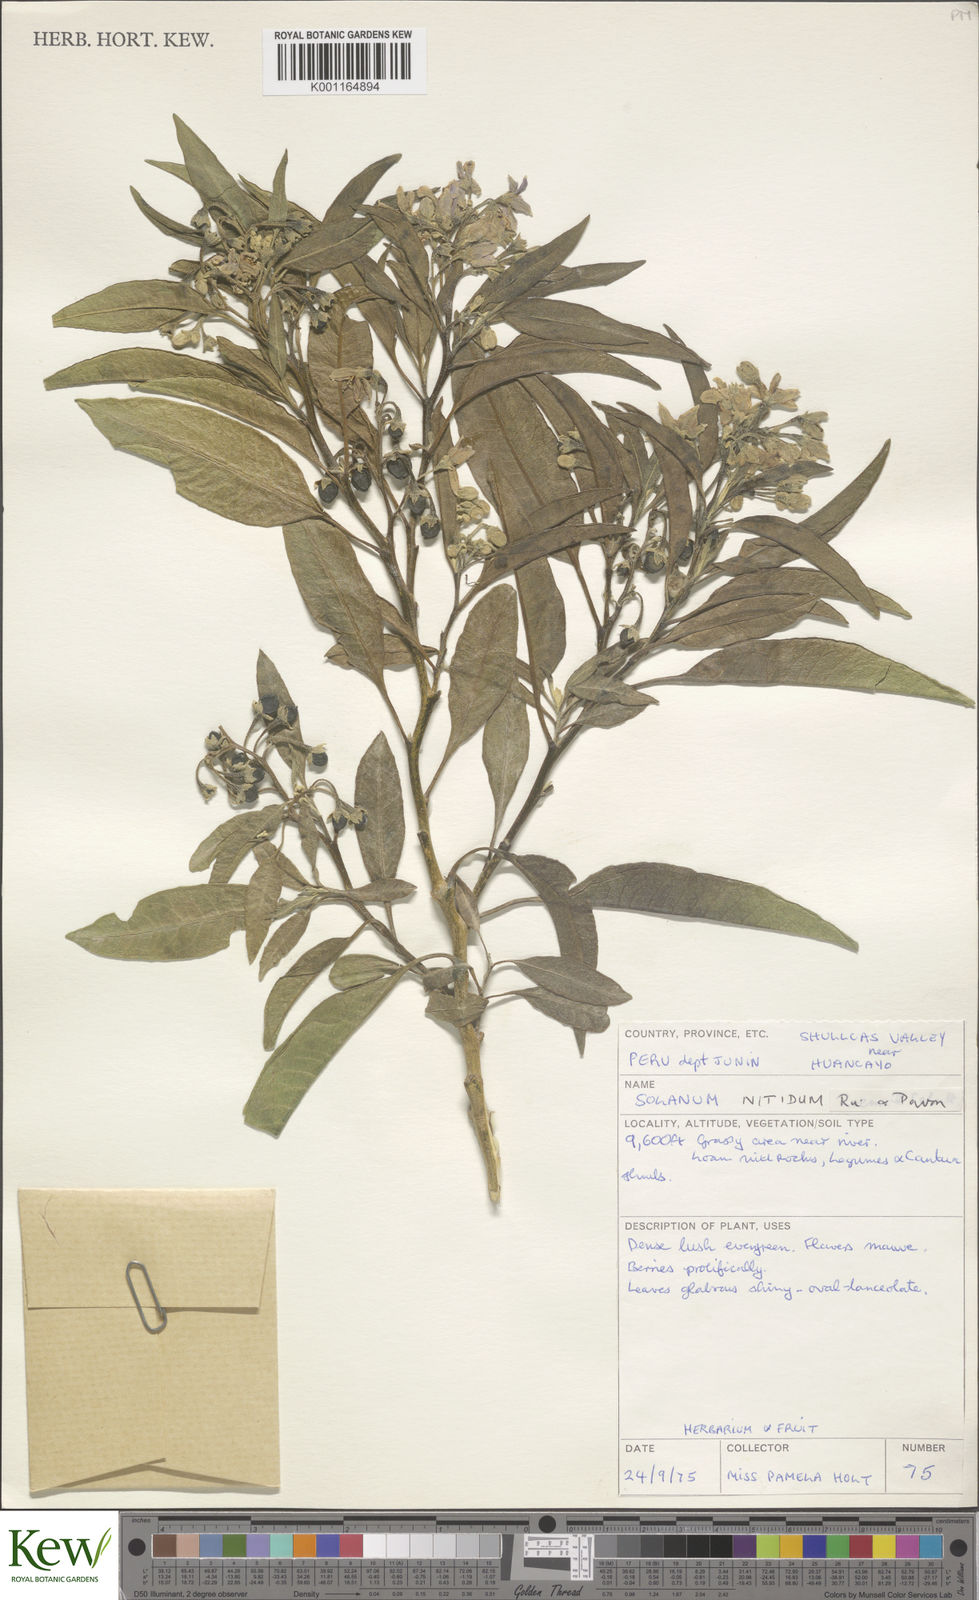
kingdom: Plantae
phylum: Tracheophyta
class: Magnoliopsida
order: Solanales
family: Solanaceae
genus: Solanum
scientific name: Solanum nitidum
